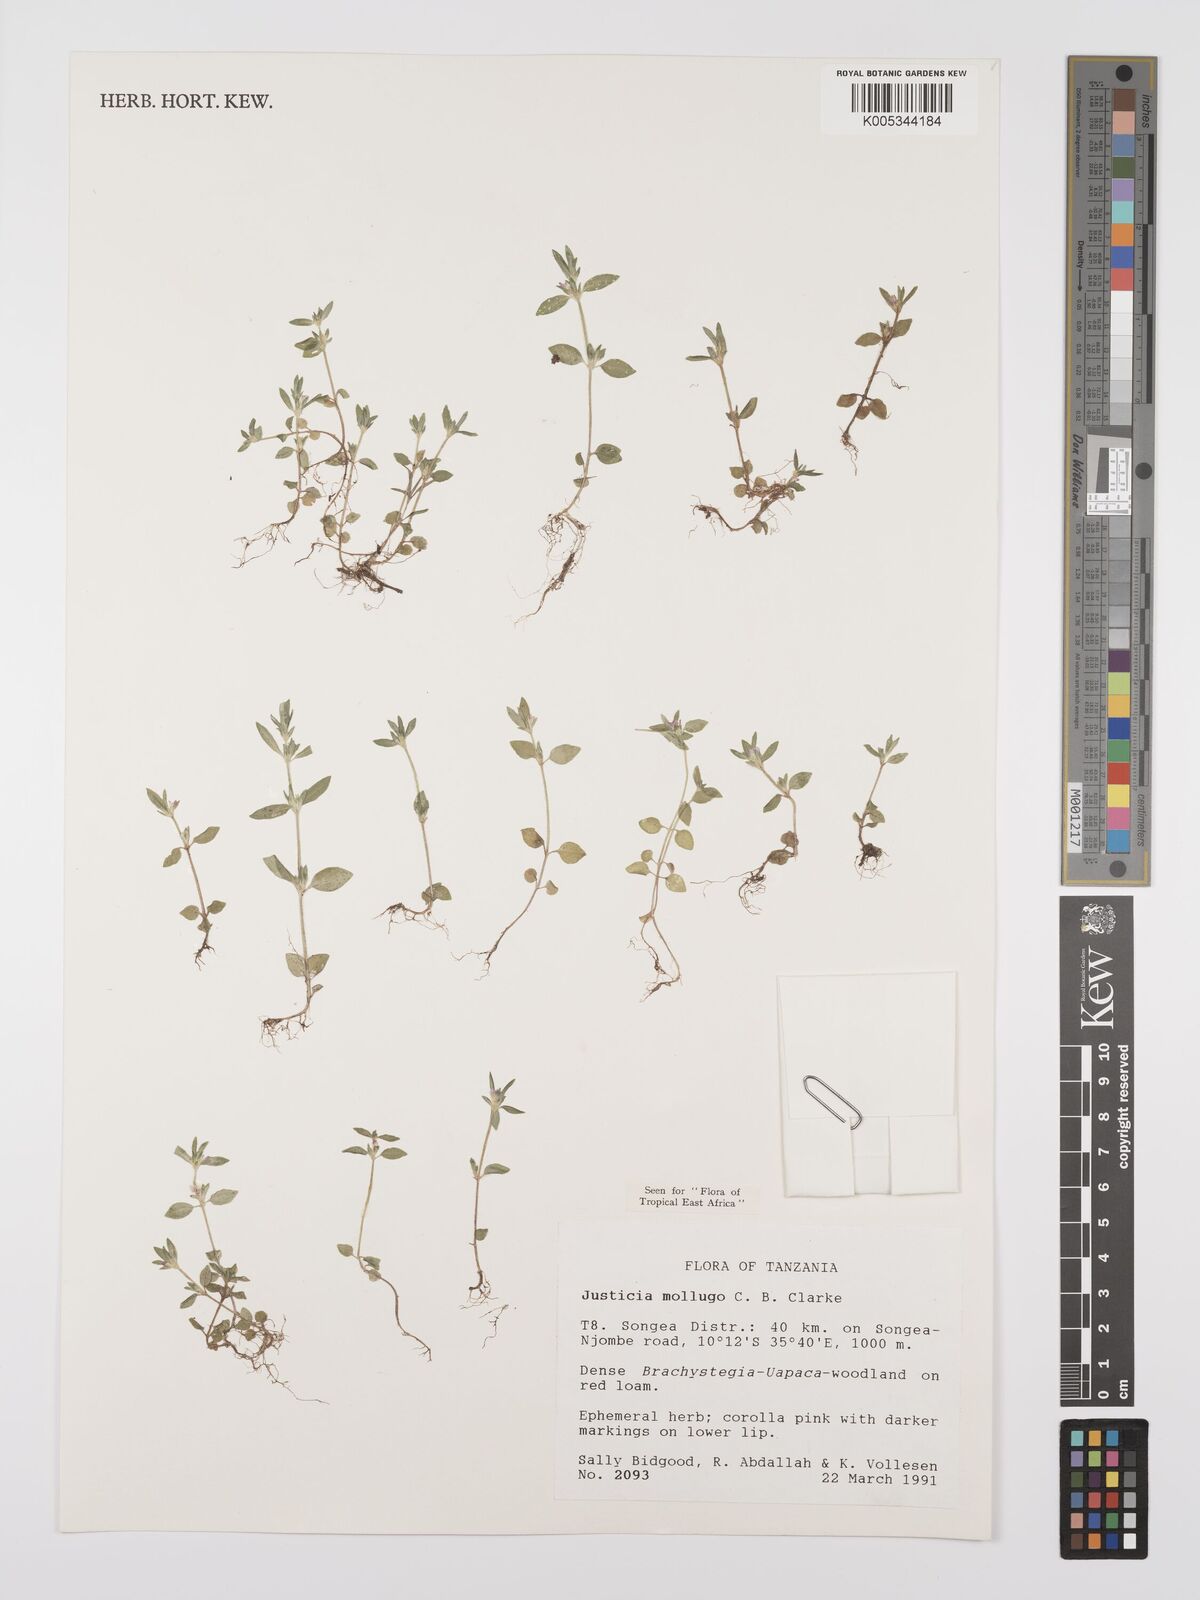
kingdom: Plantae
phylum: Tracheophyta
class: Magnoliopsida
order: Lamiales
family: Acanthaceae
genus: Justicia
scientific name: Justicia mollugo
